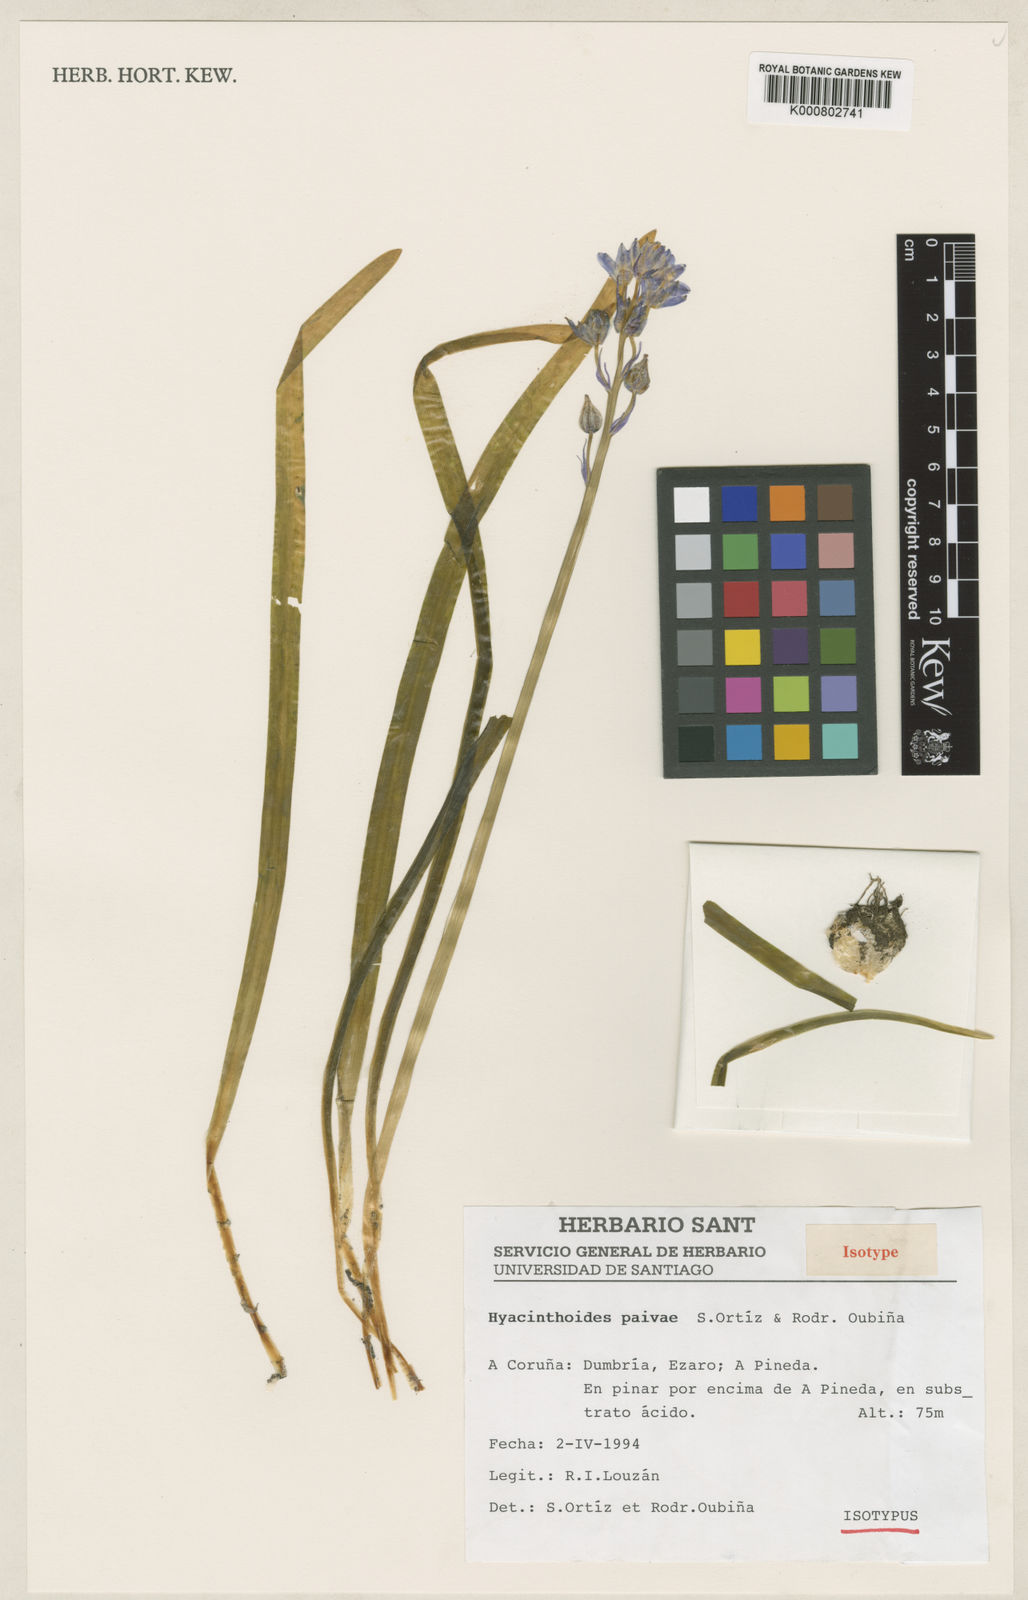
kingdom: Plantae
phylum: Tracheophyta
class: Liliopsida
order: Asparagales
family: Asparagaceae
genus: Hyacinthoides
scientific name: Hyacinthoides
